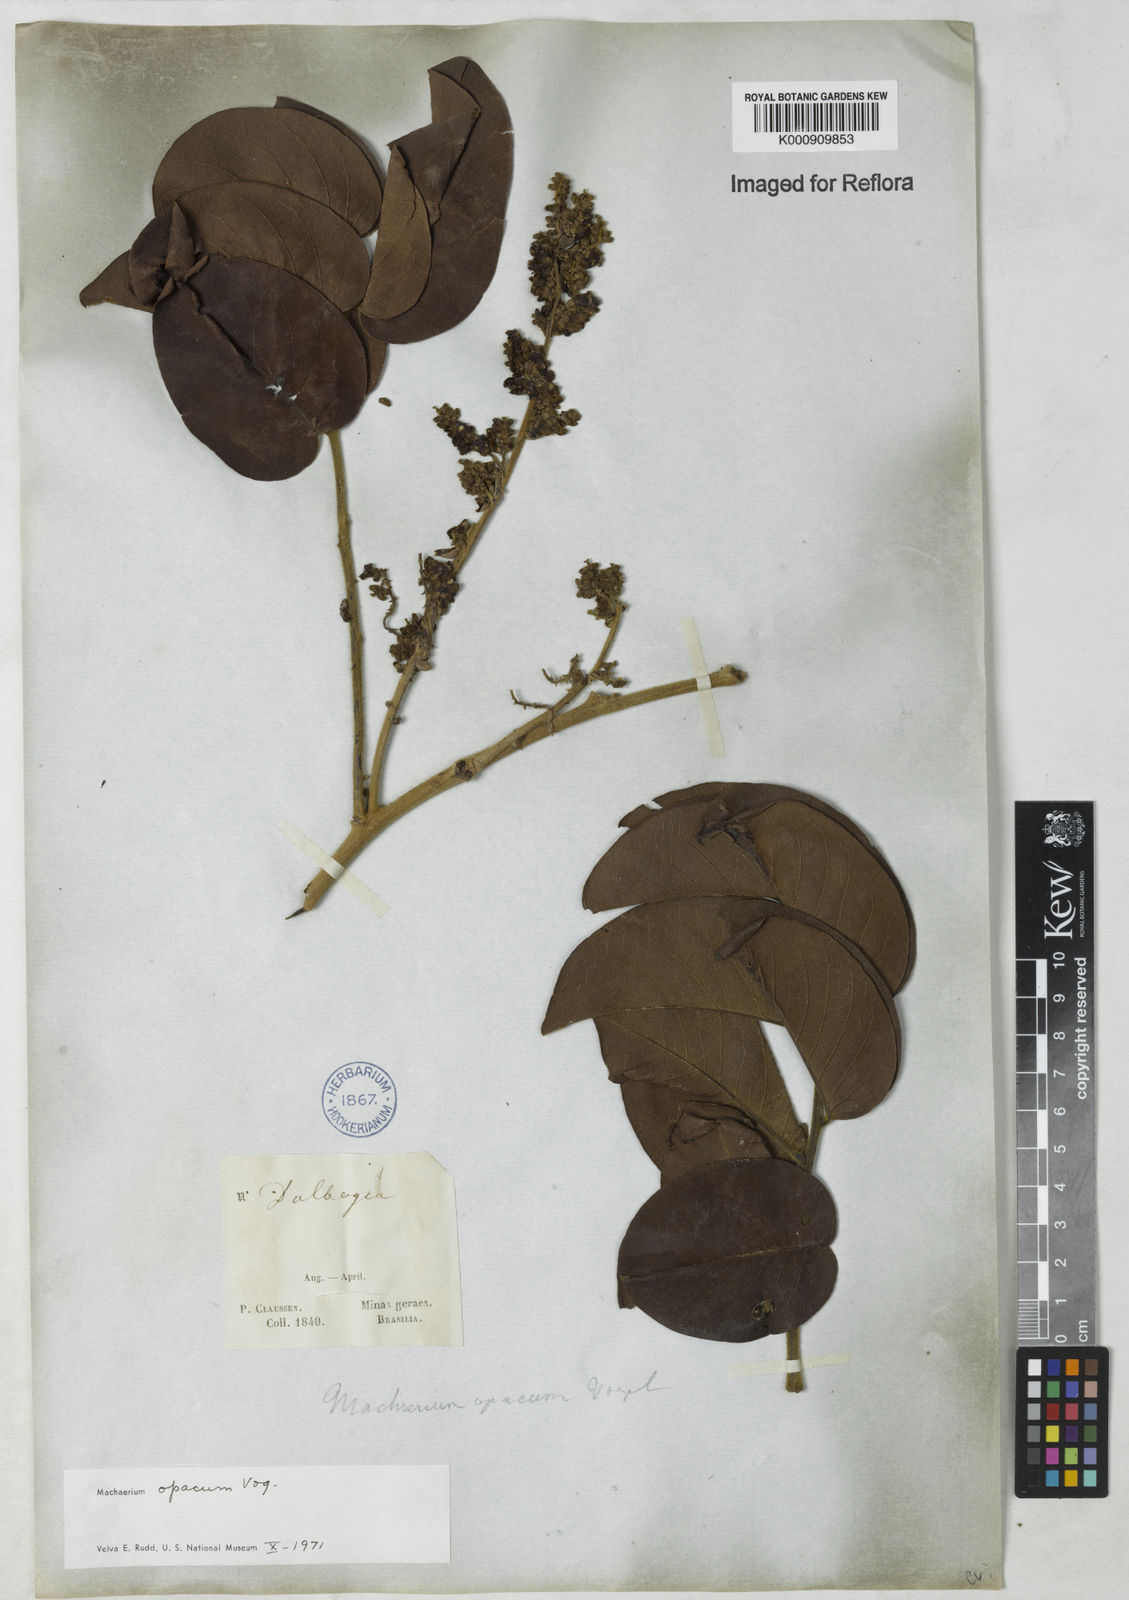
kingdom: Plantae
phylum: Tracheophyta
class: Magnoliopsida
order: Fabales
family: Fabaceae
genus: Machaerium
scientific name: Machaerium opacum
